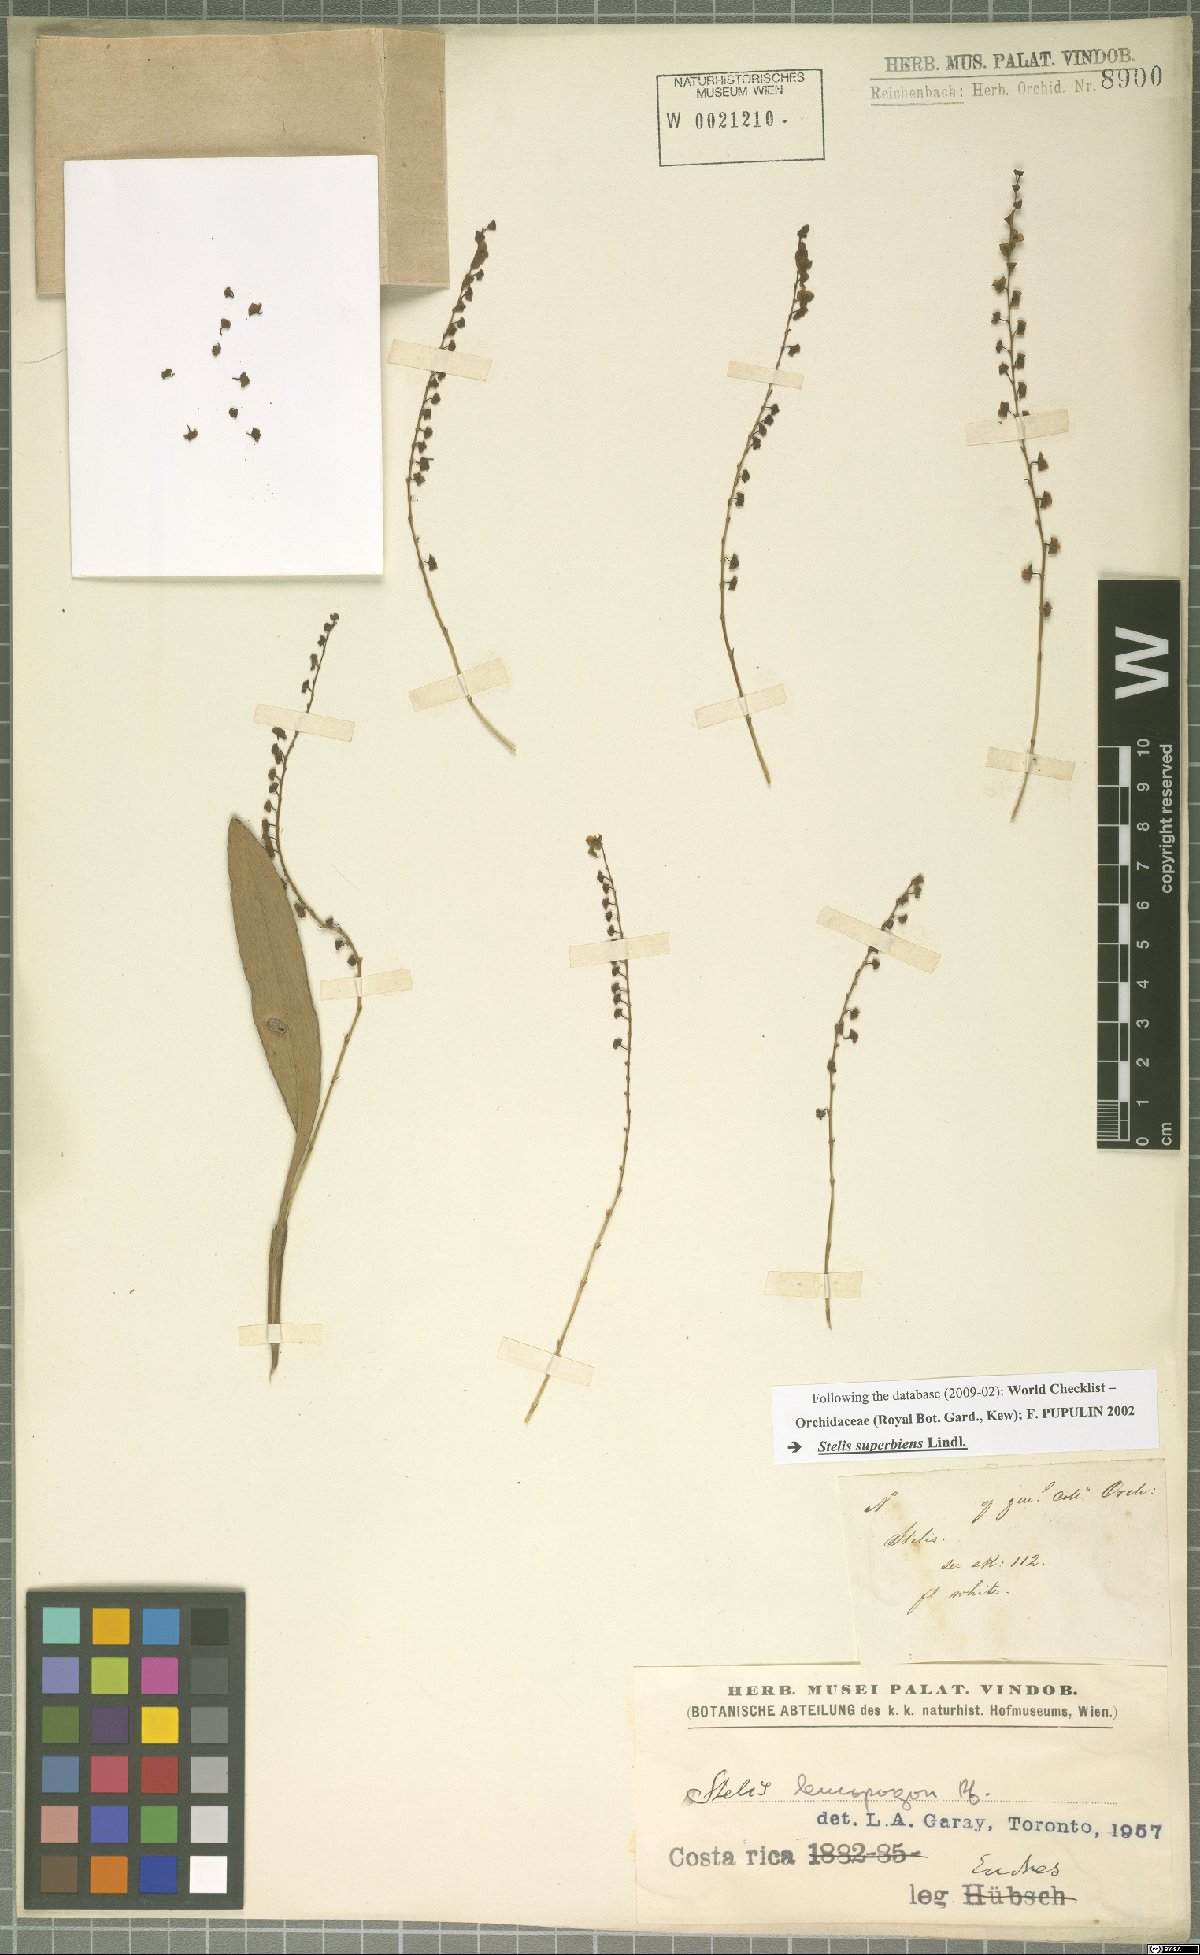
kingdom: Plantae
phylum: Tracheophyta
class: Liliopsida
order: Asparagales
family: Orchidaceae
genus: Stelis
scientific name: Stelis superbiens
